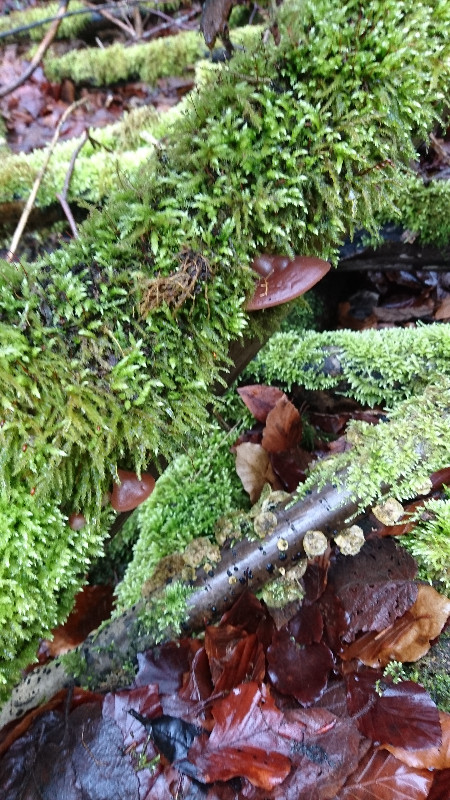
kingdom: Fungi
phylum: Basidiomycota
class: Agaricomycetes
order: Auriculariales
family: Auriculariaceae
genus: Exidia
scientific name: Exidia recisa
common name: pile-bævretop
